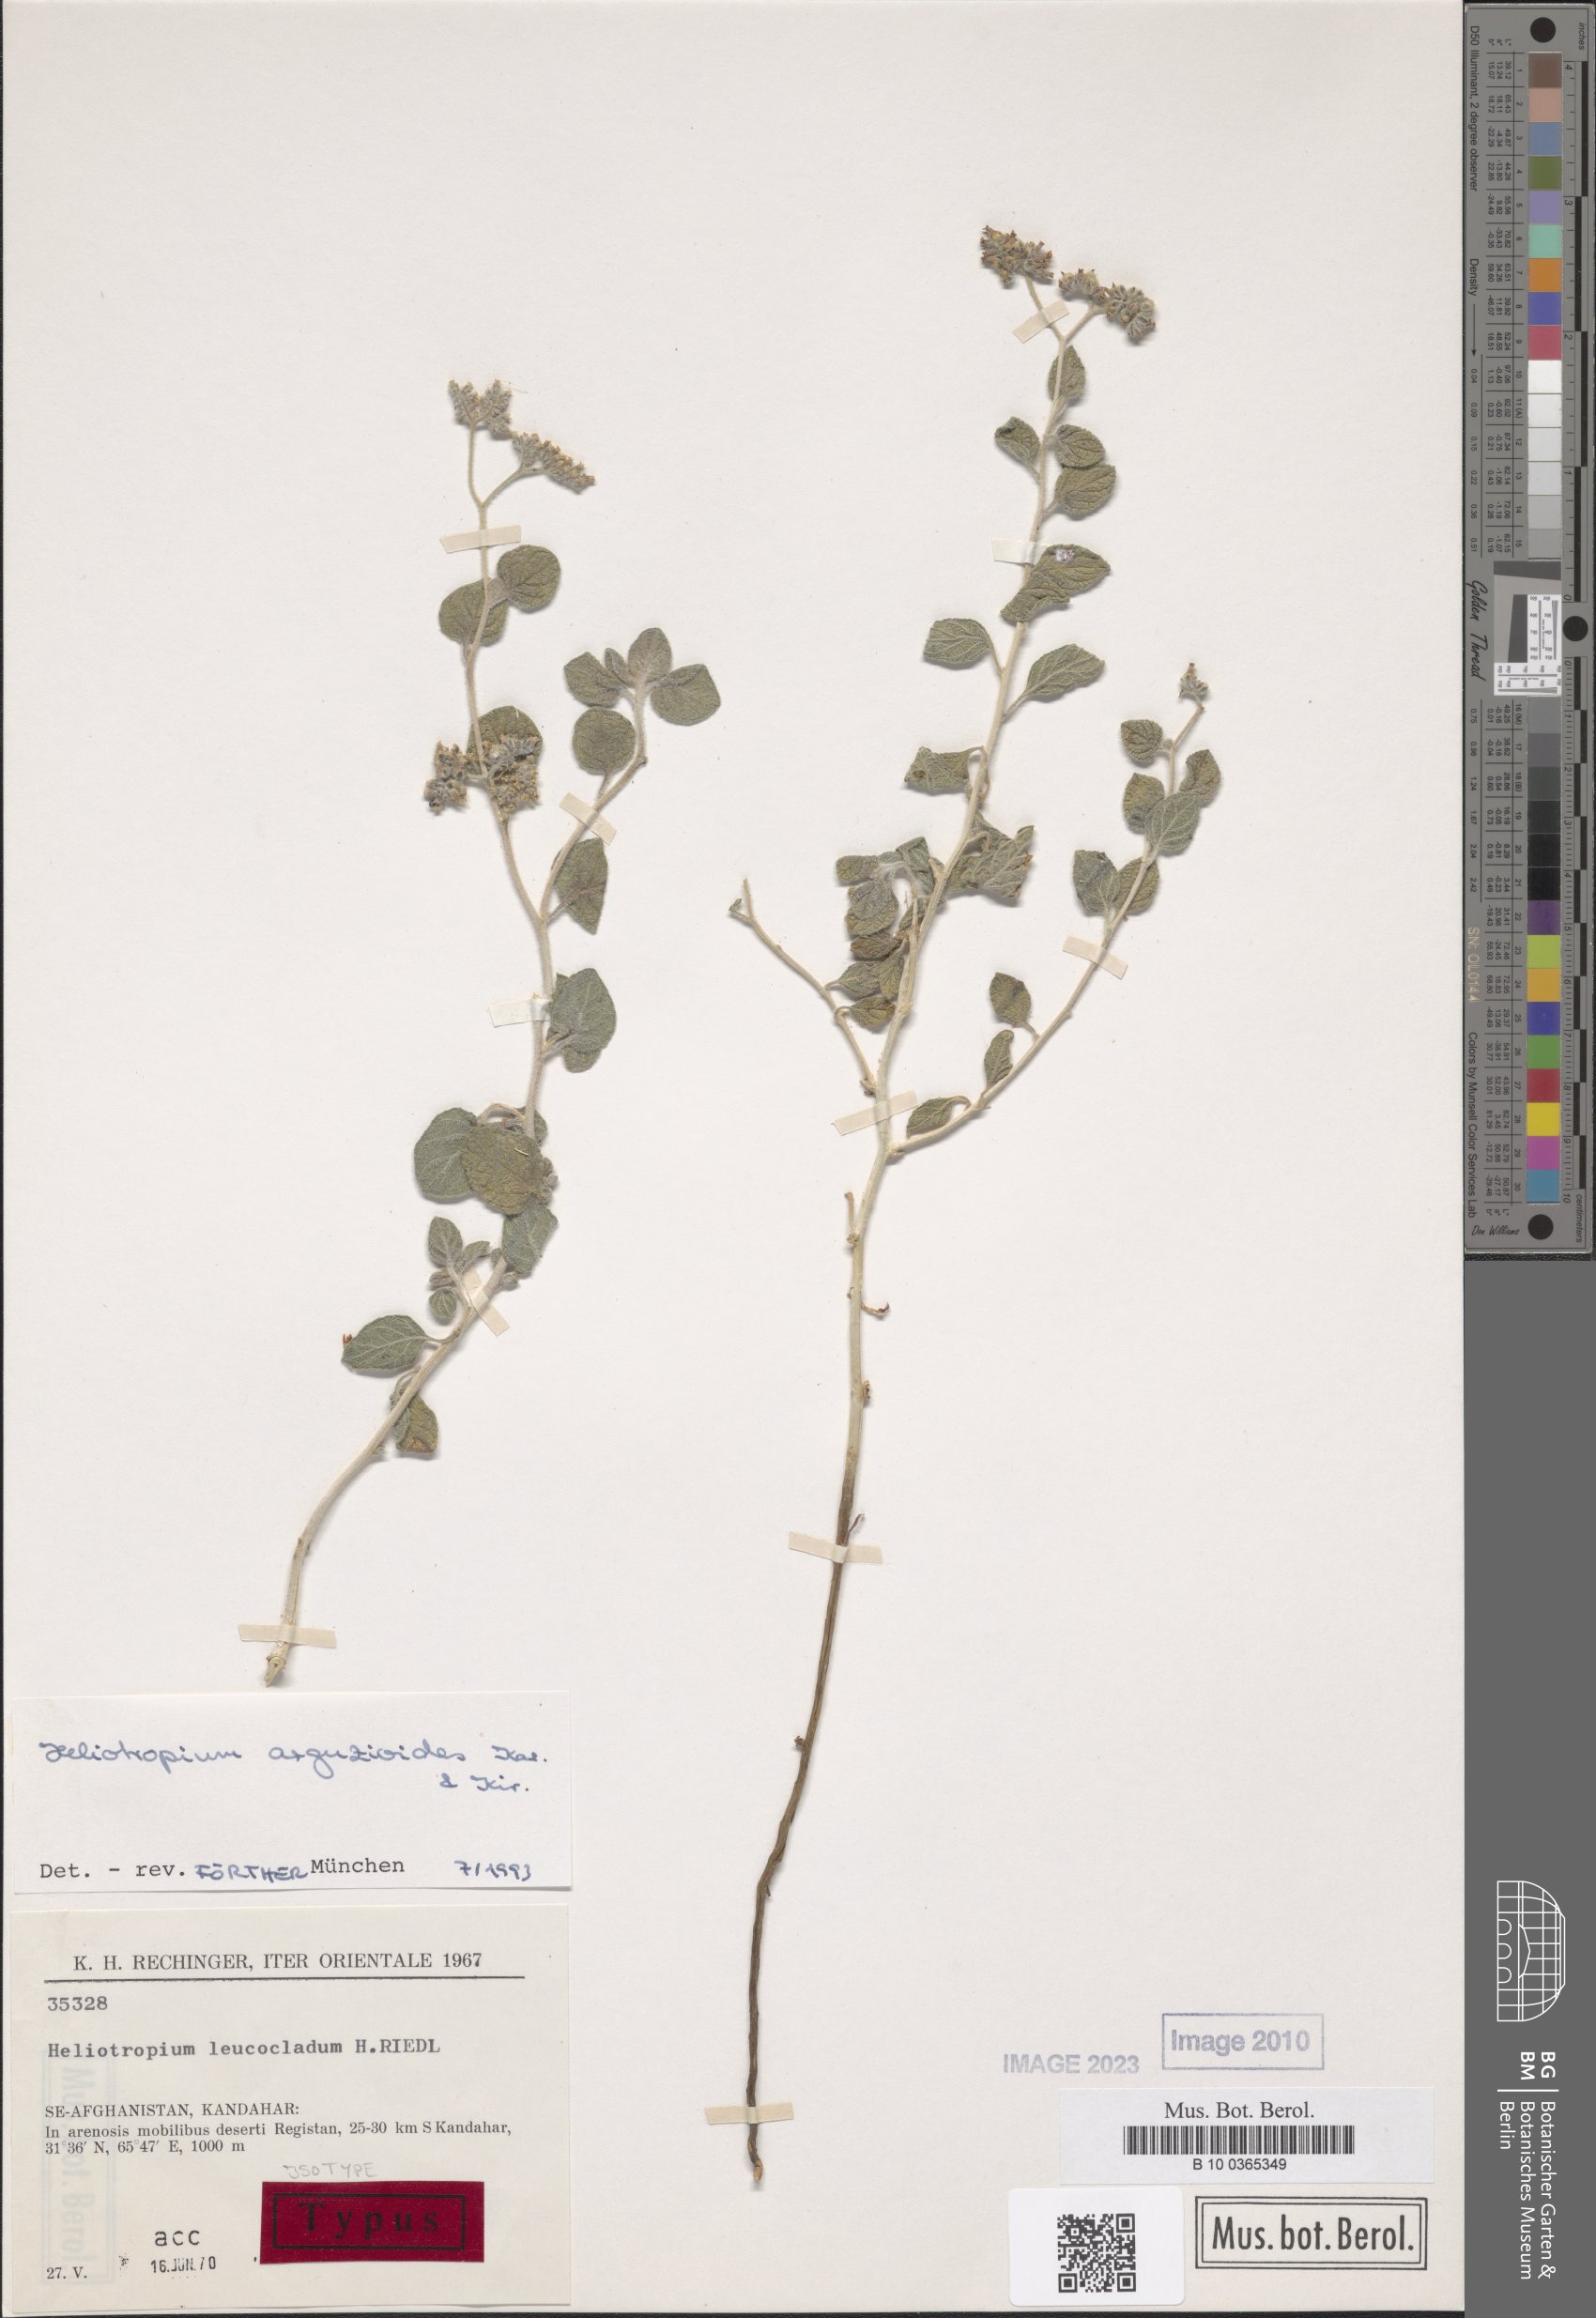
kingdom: Plantae
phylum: Tracheophyta
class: Magnoliopsida
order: Boraginales
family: Heliotropiaceae
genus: Heliotropium
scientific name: Heliotropium arguzioides
